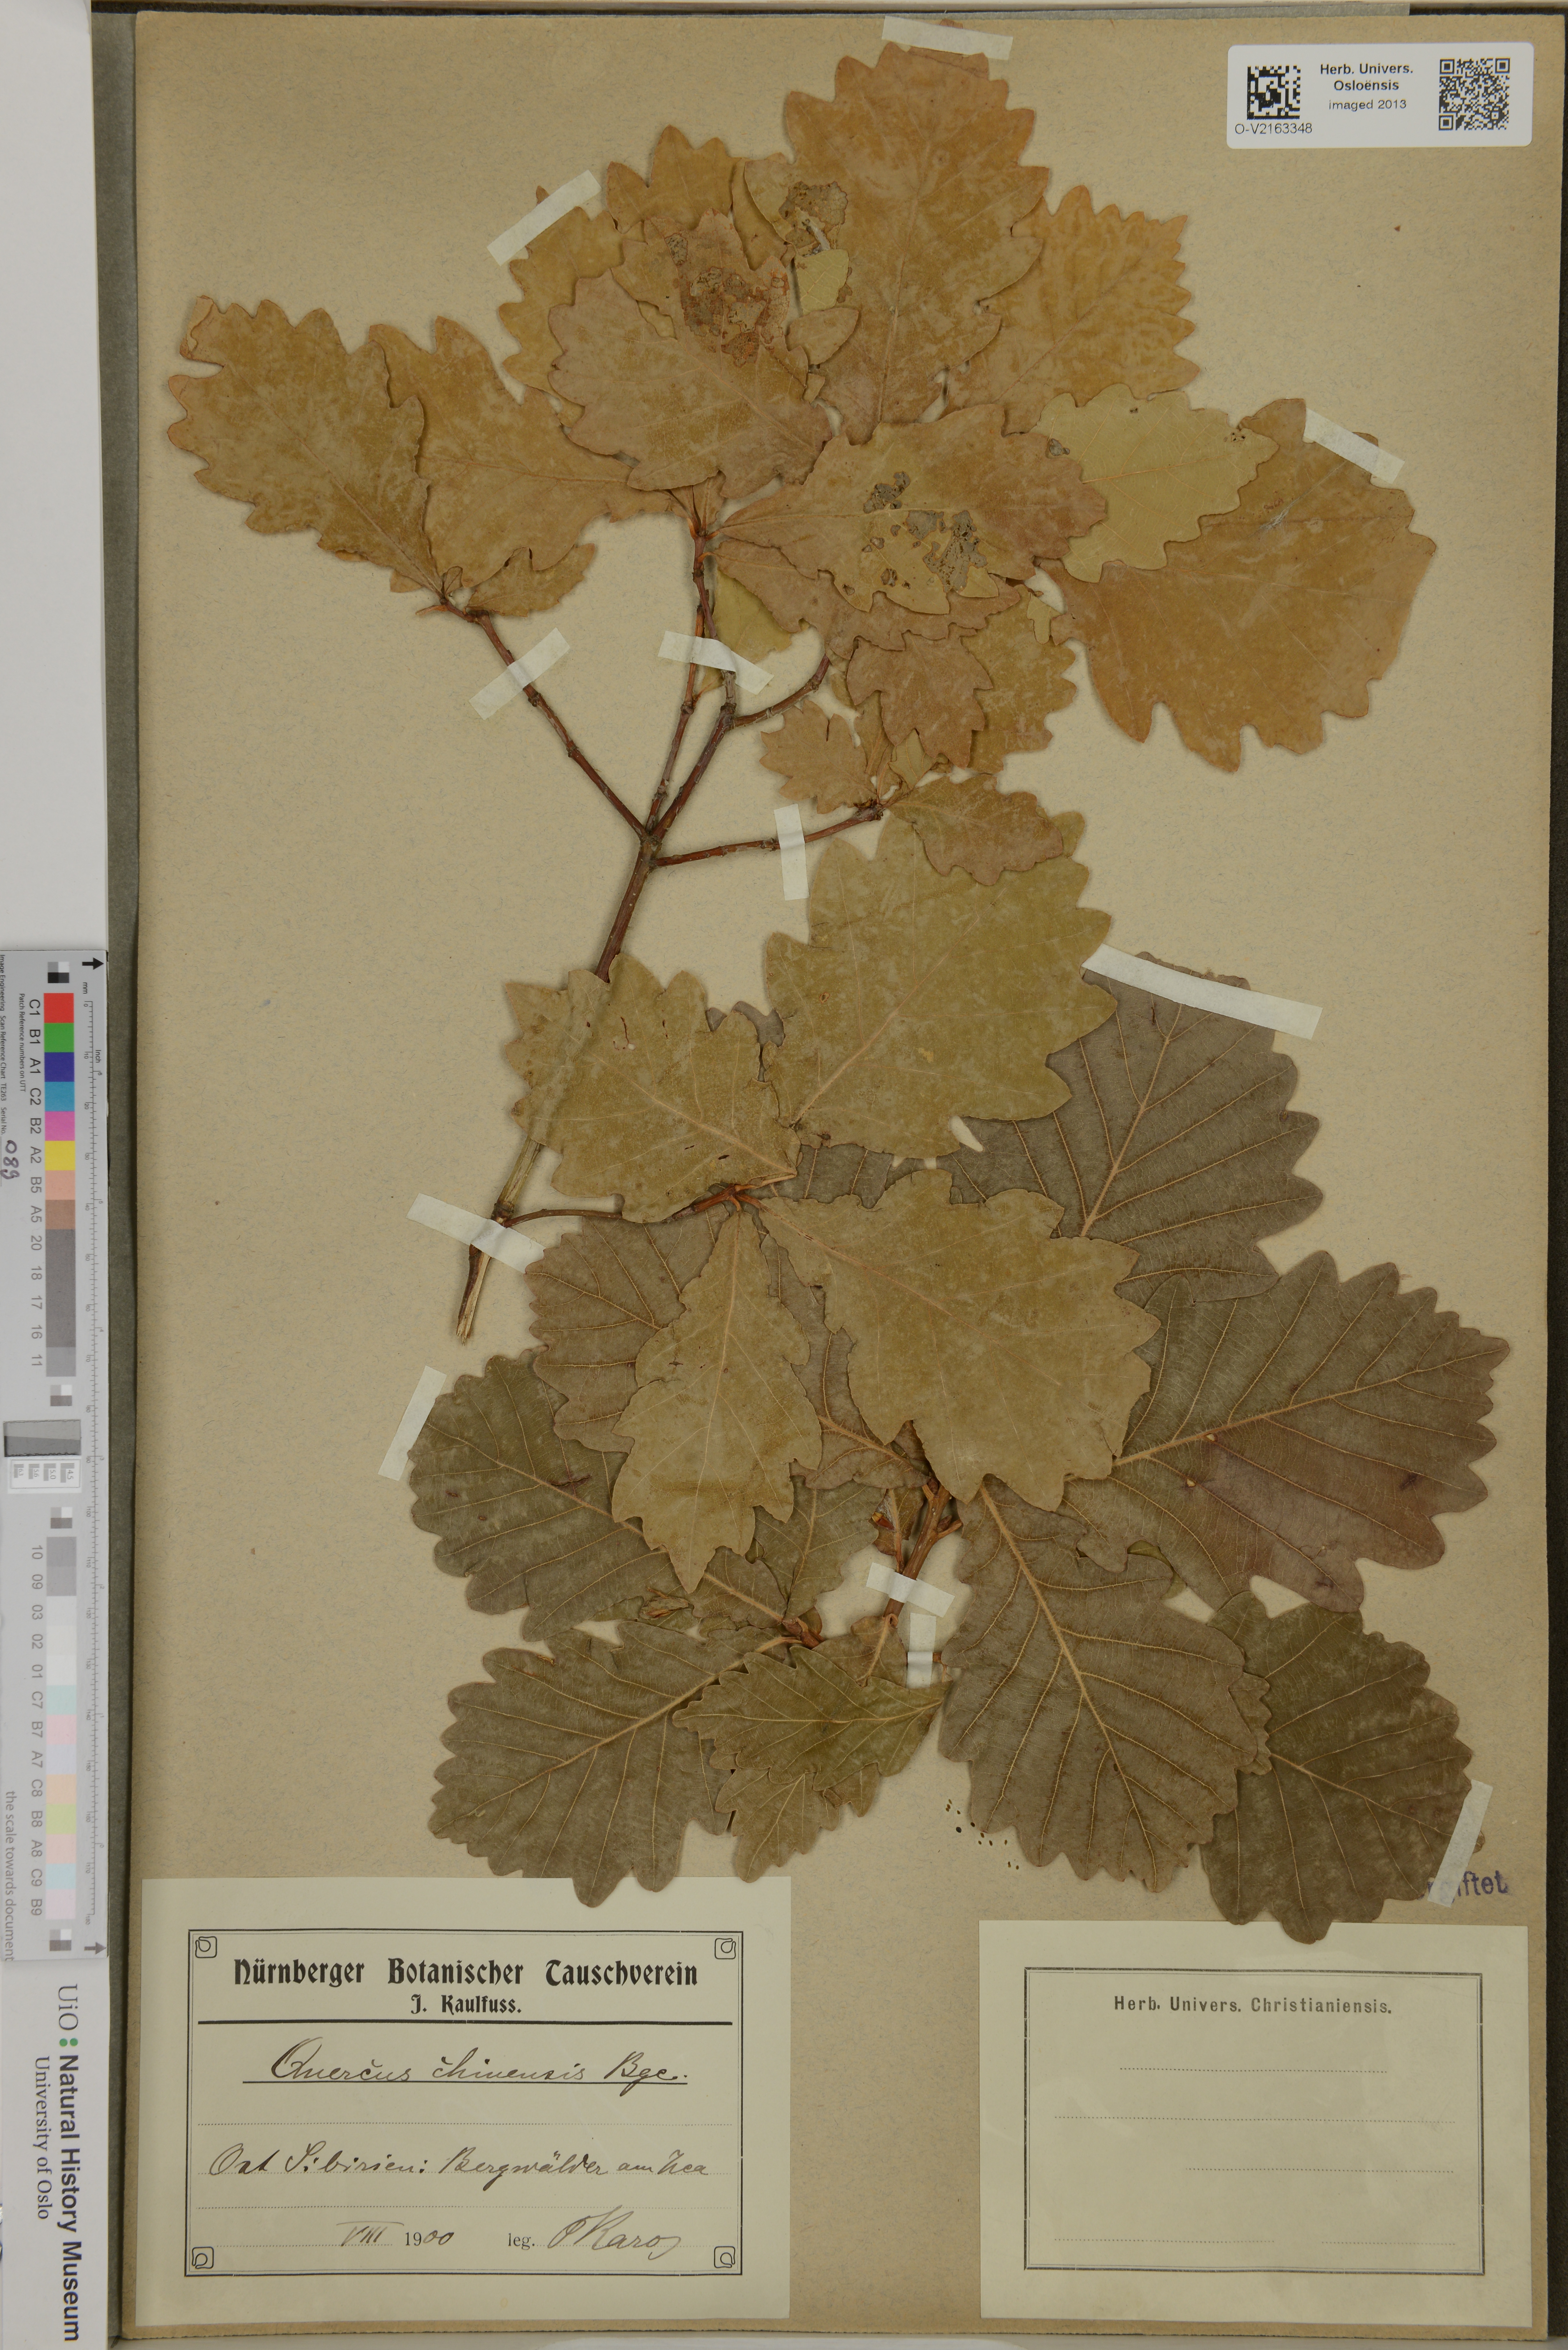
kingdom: Plantae
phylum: Tracheophyta
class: Magnoliopsida
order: Fagales
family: Fagaceae
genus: Quercus
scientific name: Quercus variabilis
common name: Chinese cork oak
